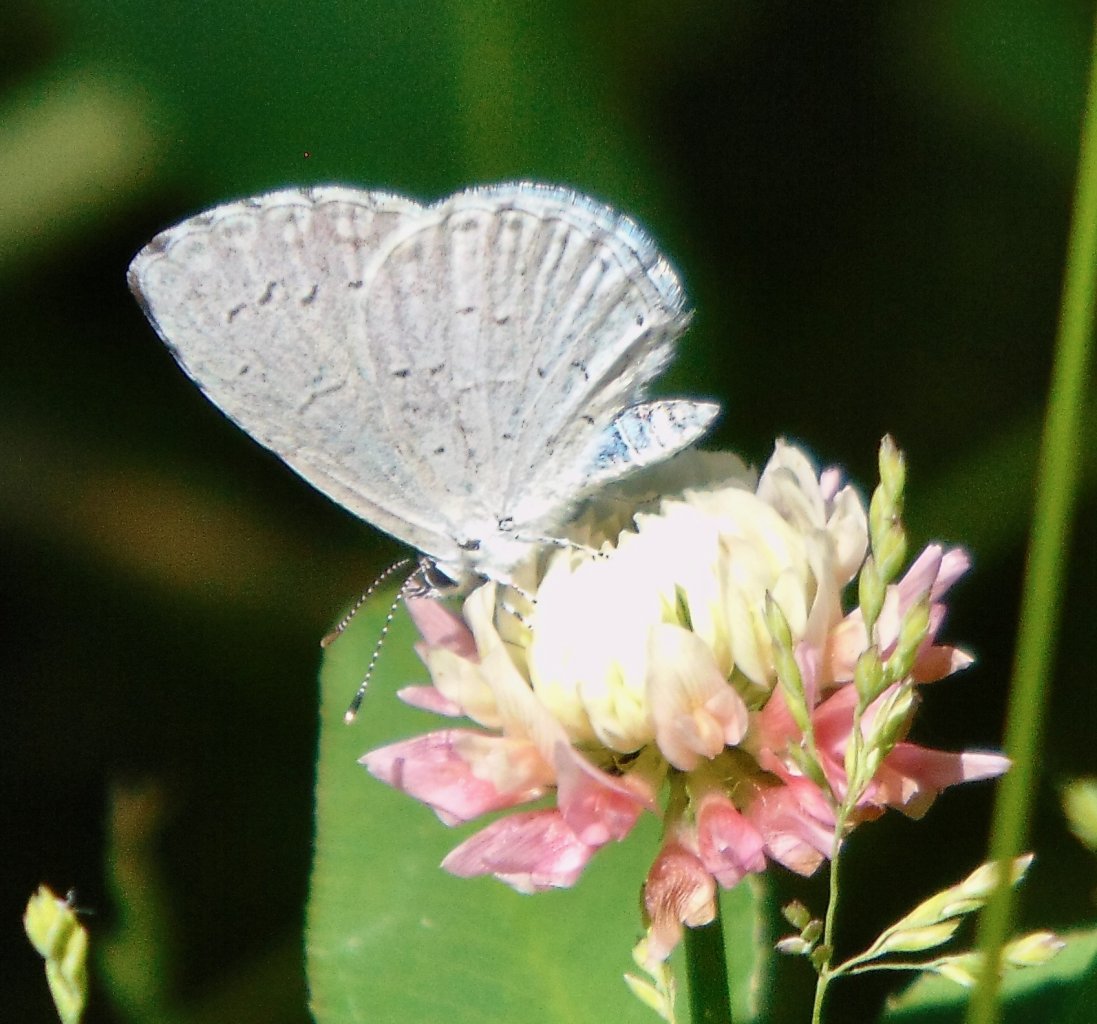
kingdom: Animalia
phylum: Arthropoda
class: Insecta
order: Lepidoptera
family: Lycaenidae
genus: Cyaniris
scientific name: Cyaniris neglecta
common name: Summer Azure
